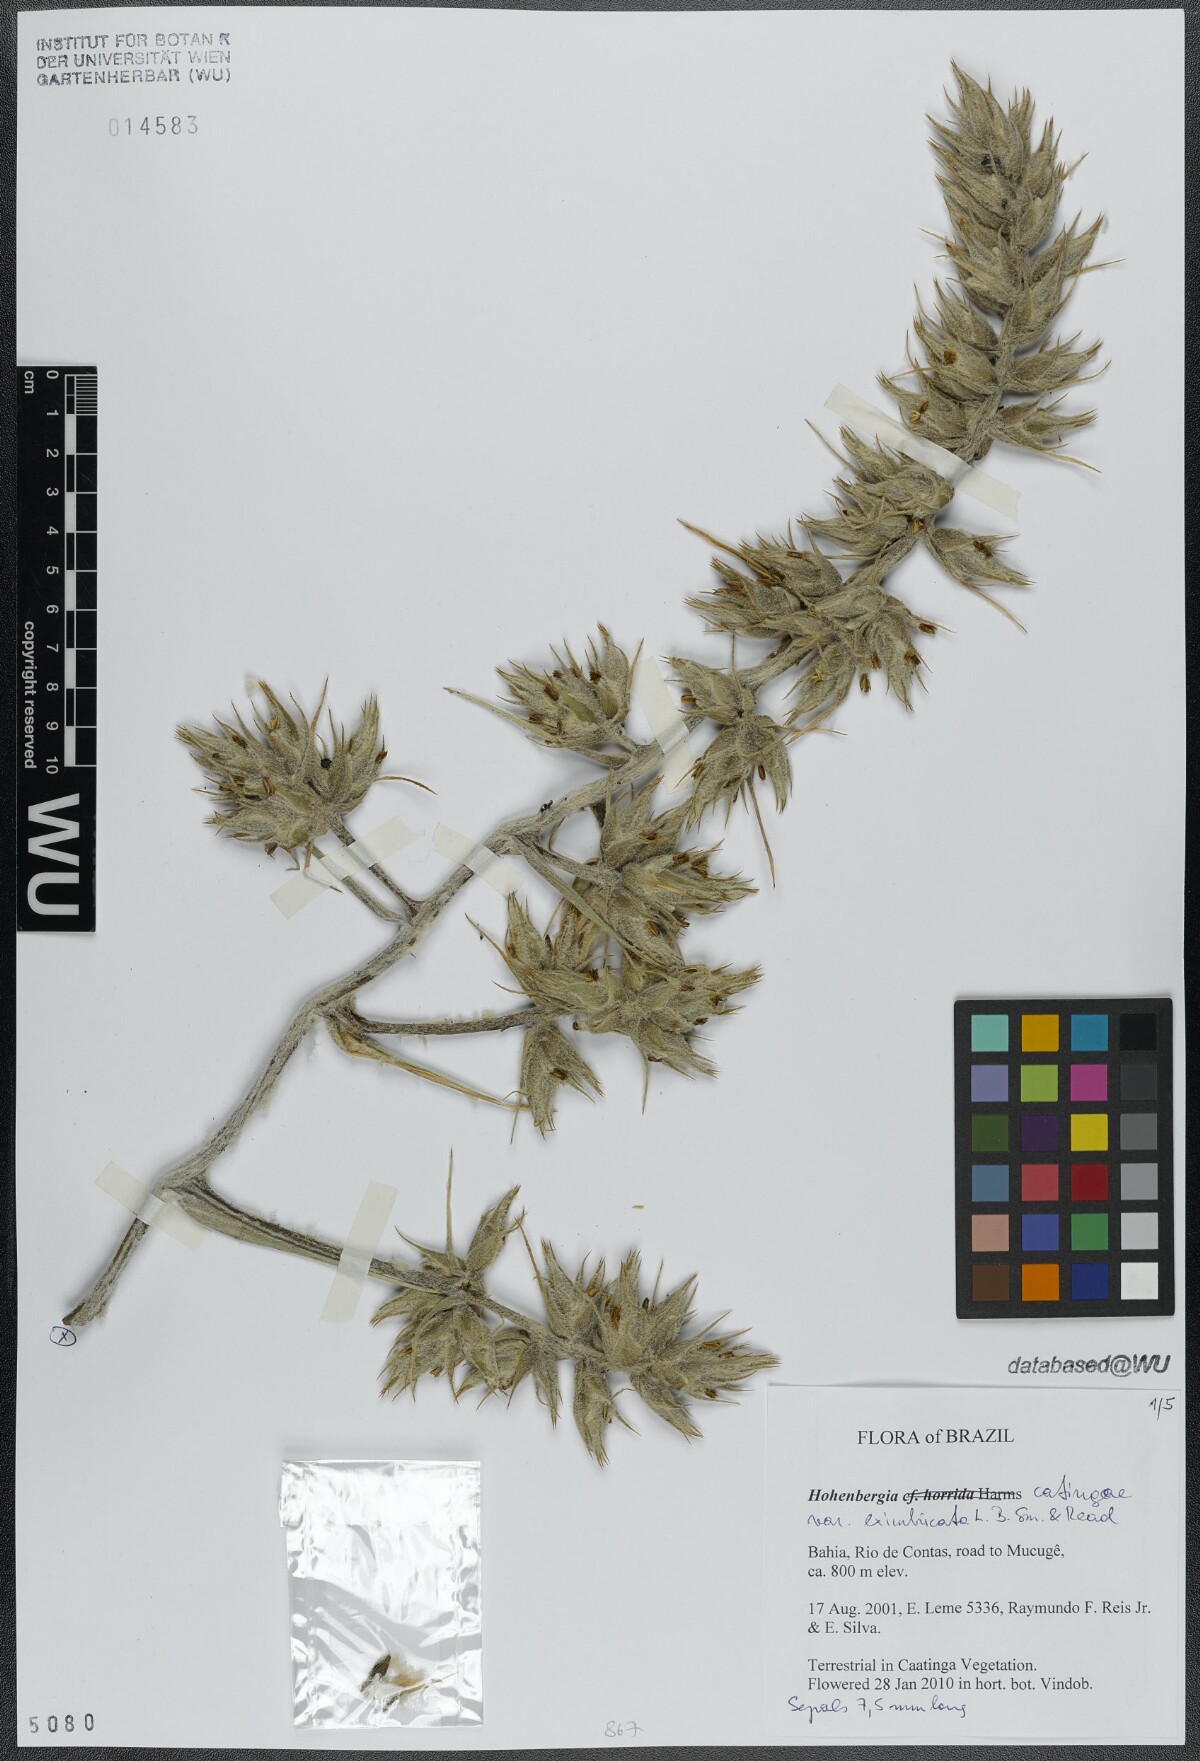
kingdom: Plantae
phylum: Tracheophyta
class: Liliopsida
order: Poales
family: Bromeliaceae
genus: Hohenbergia
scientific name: Hohenbergia catingae
